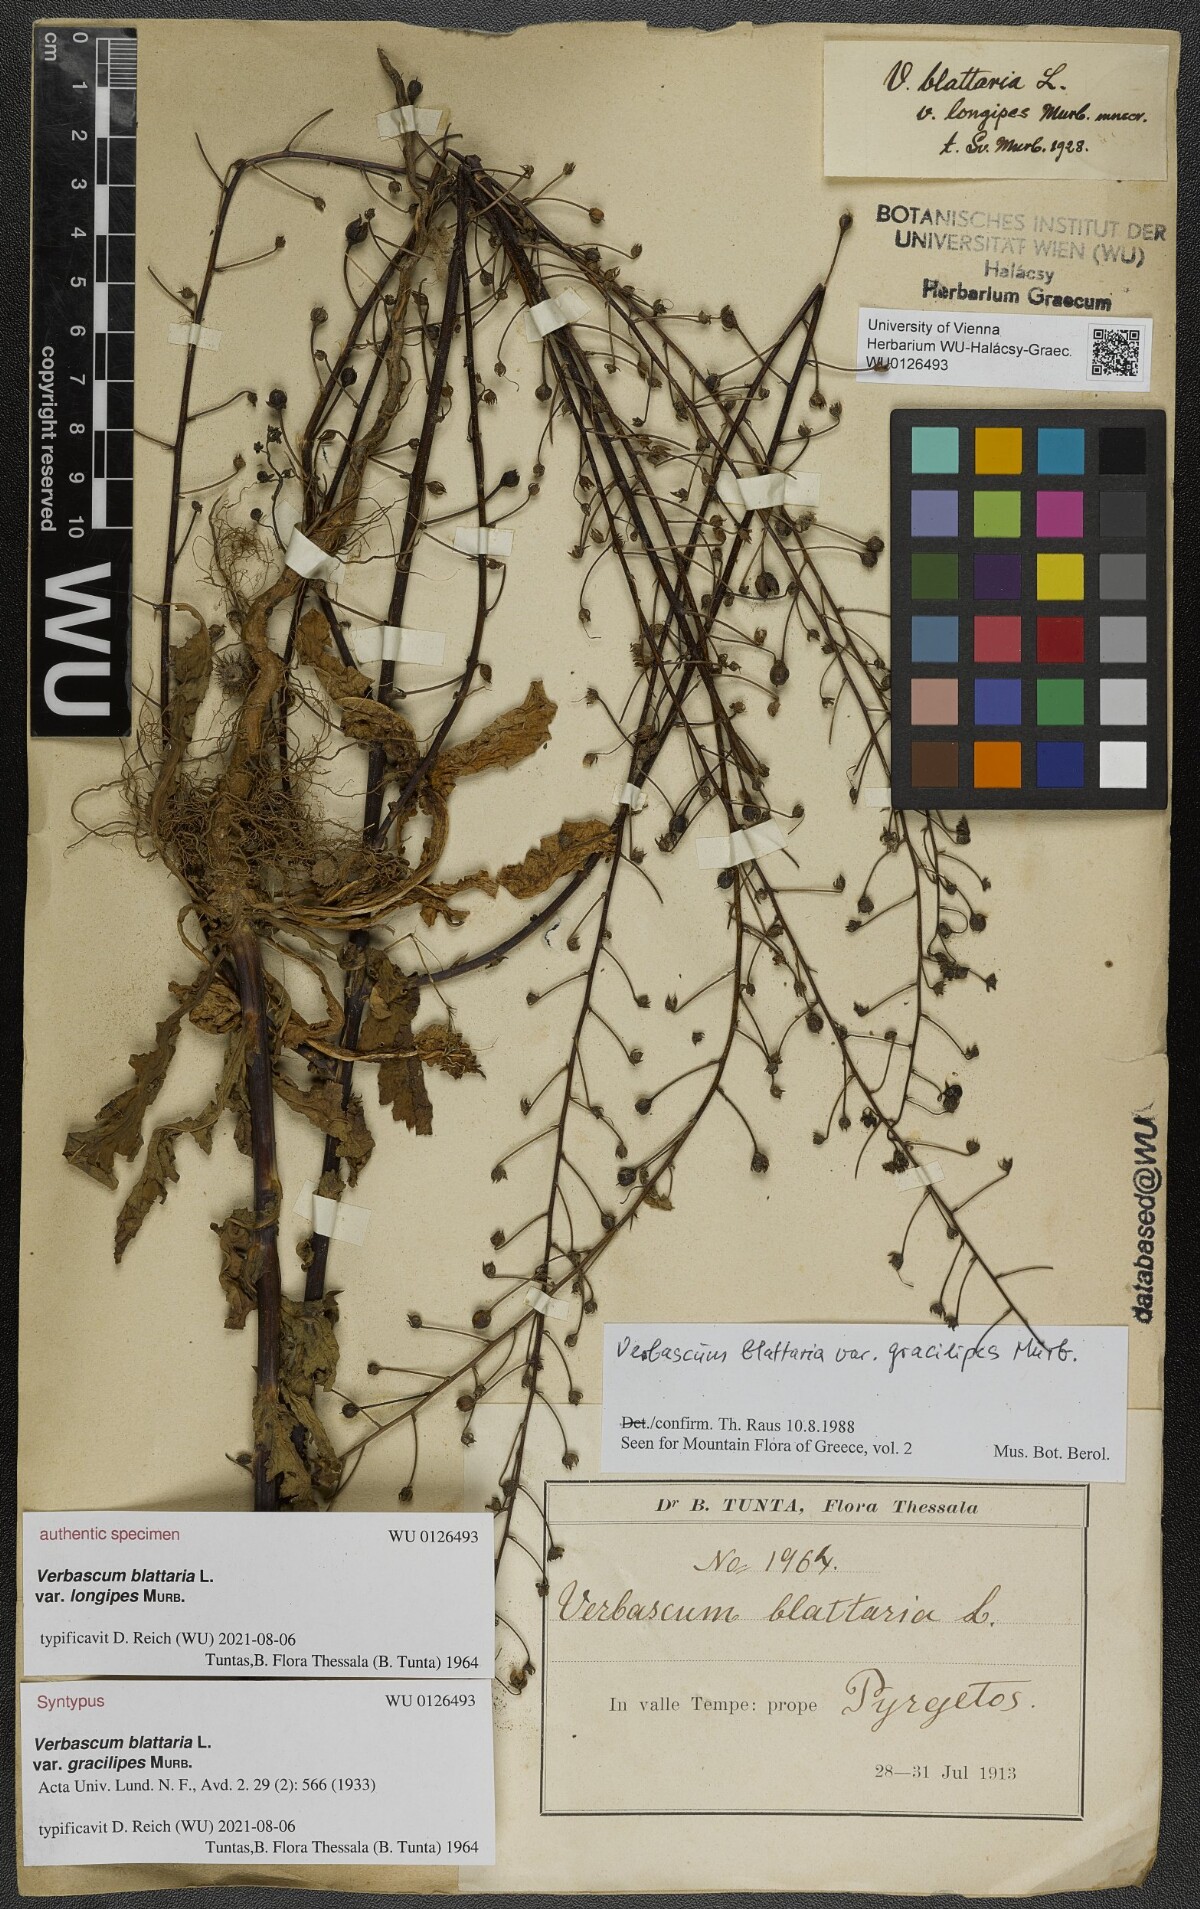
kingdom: Plantae
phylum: Tracheophyta
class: Magnoliopsida
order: Lamiales
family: Scrophulariaceae
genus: Verbascum
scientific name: Verbascum blattaria
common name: Moth mullein
